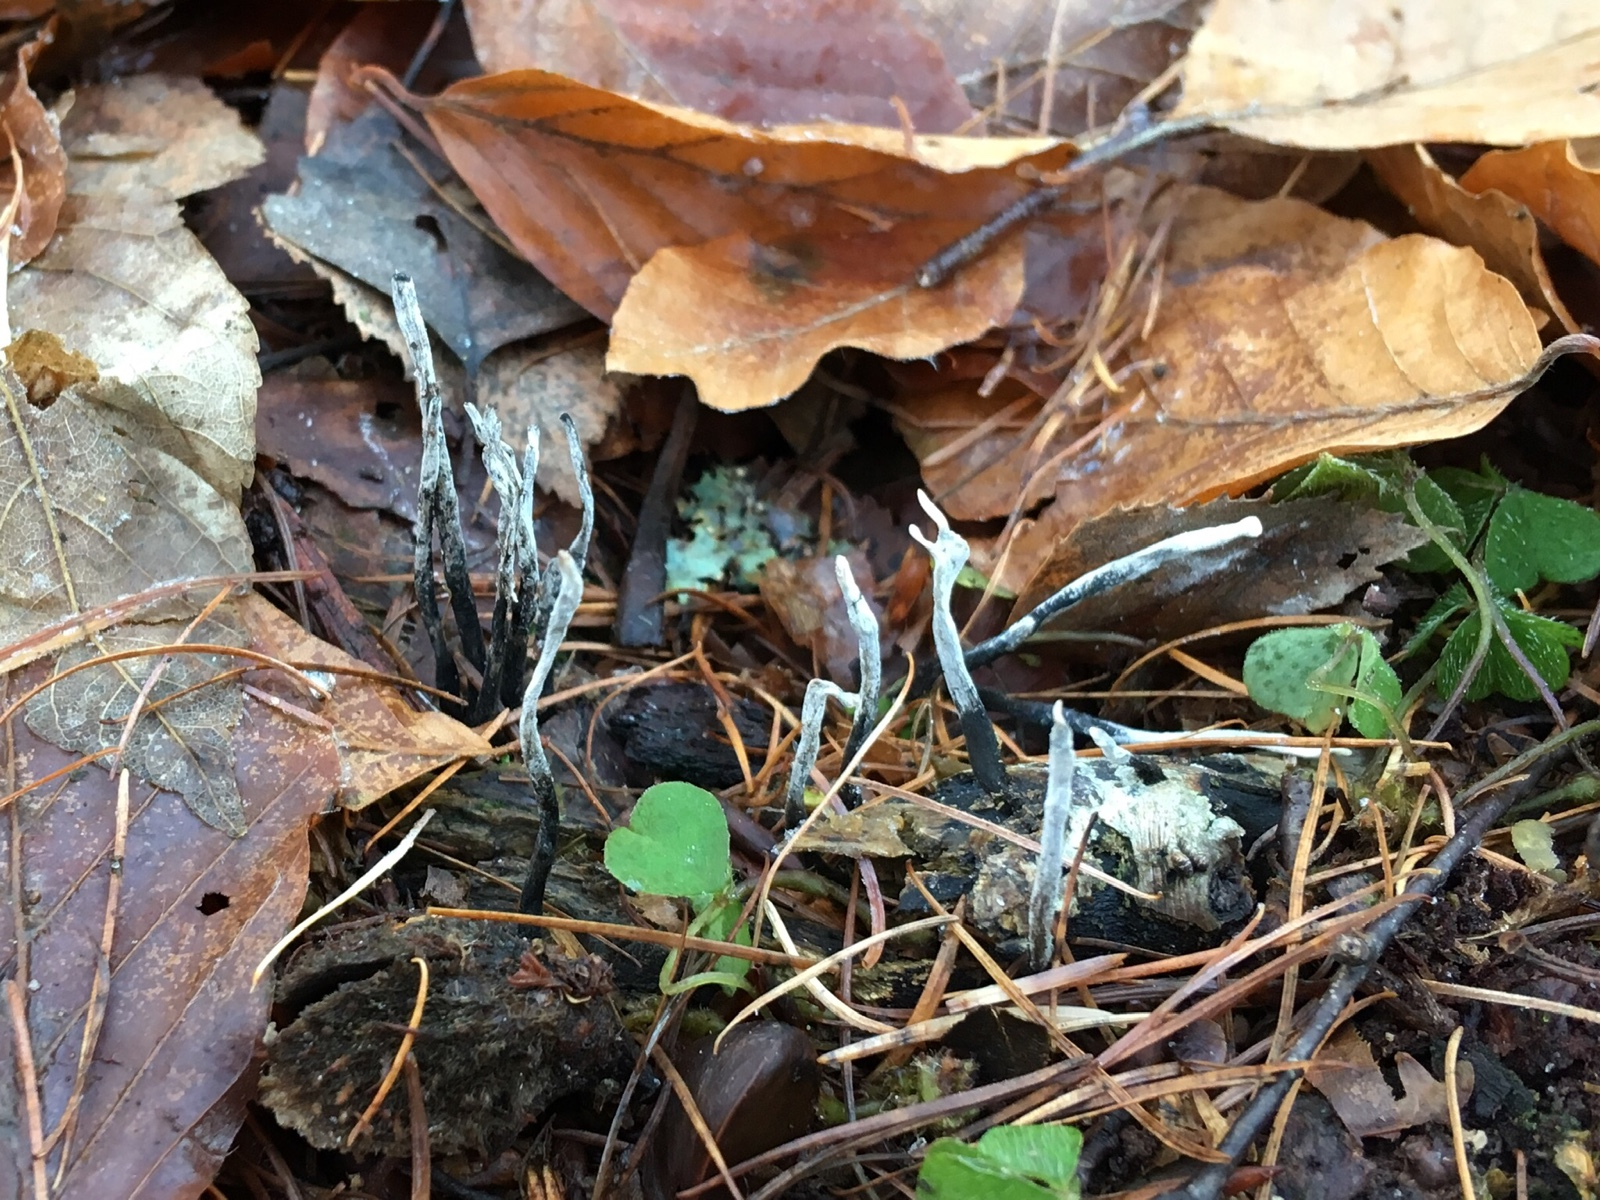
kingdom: Fungi
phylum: Ascomycota
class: Sordariomycetes
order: Xylariales
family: Xylariaceae
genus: Xylaria
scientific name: Xylaria hypoxylon
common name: grenet stødsvamp
